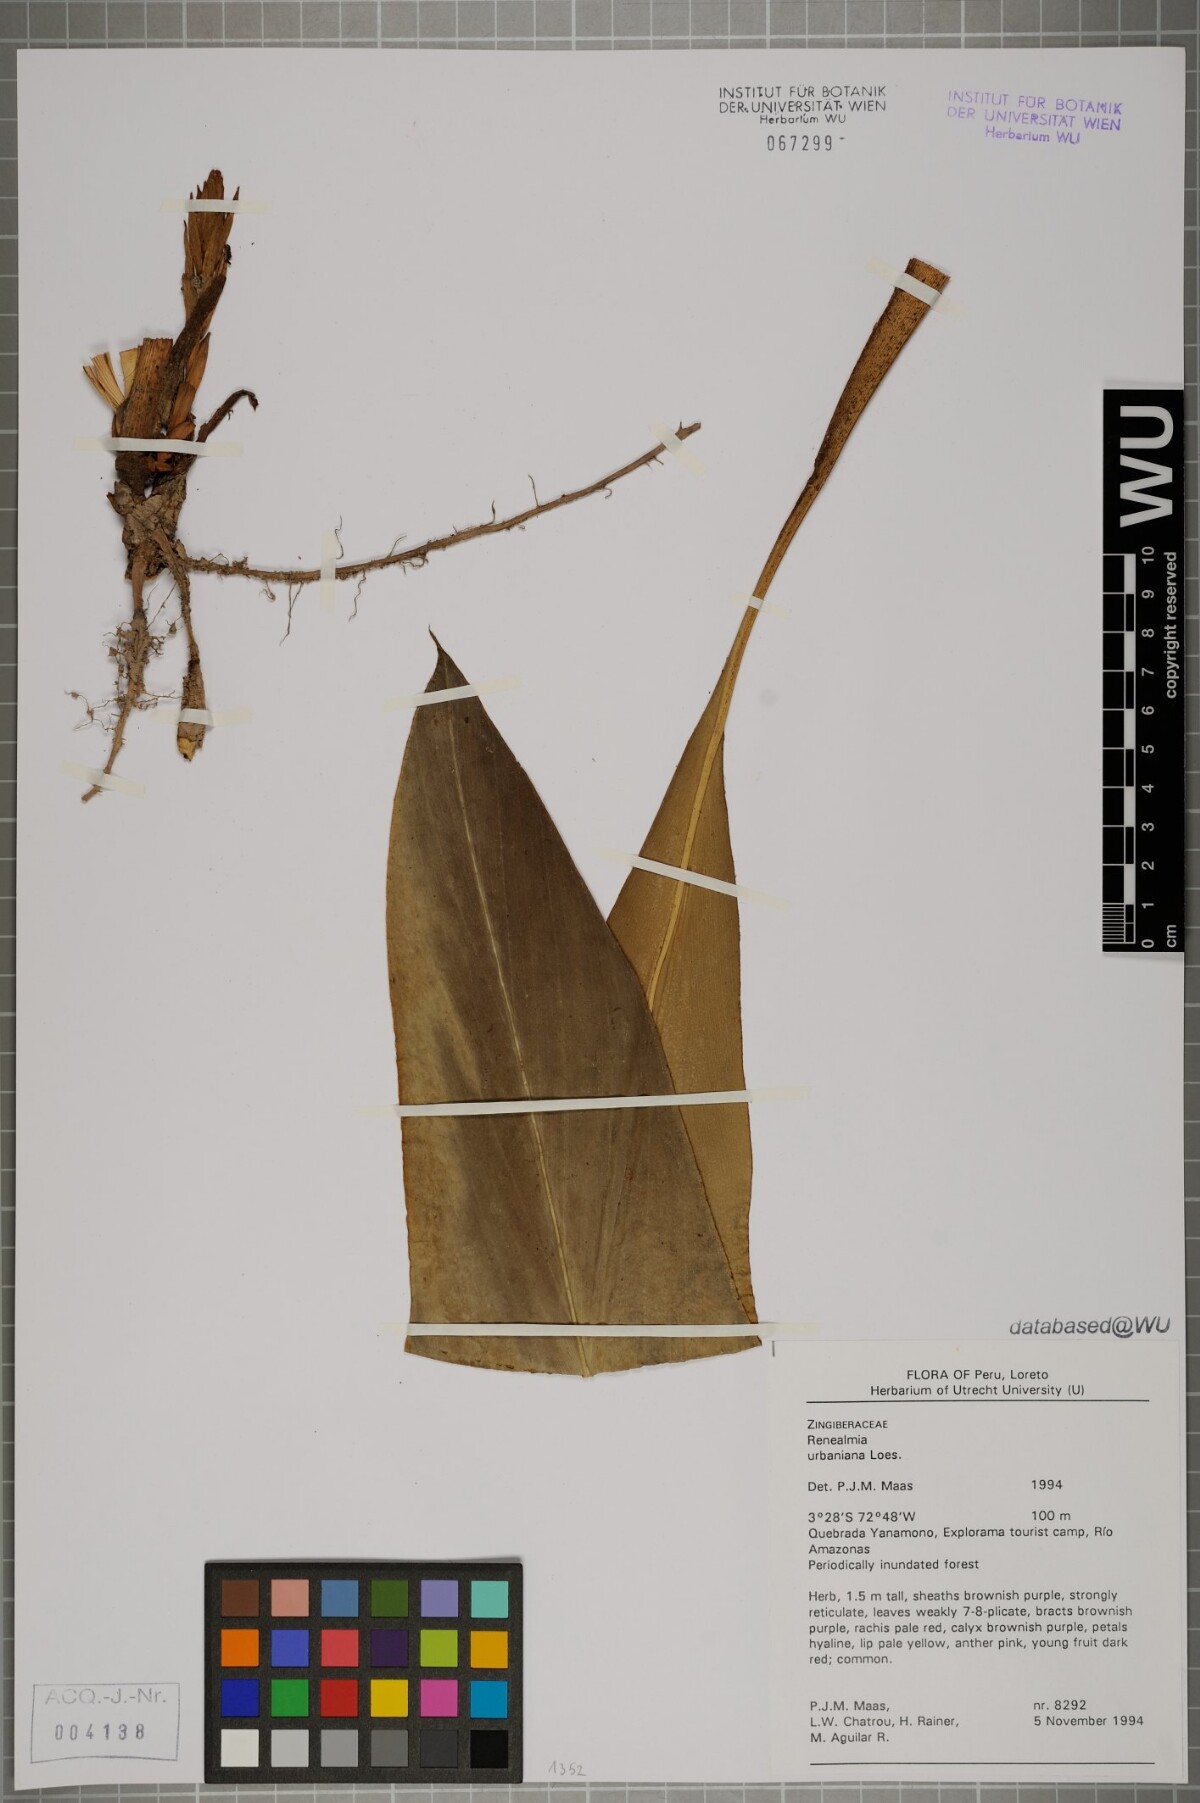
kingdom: Plantae
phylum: Tracheophyta
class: Liliopsida
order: Zingiberales
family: Zingiberaceae
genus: Renealmia
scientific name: Renealmia urbaniana
